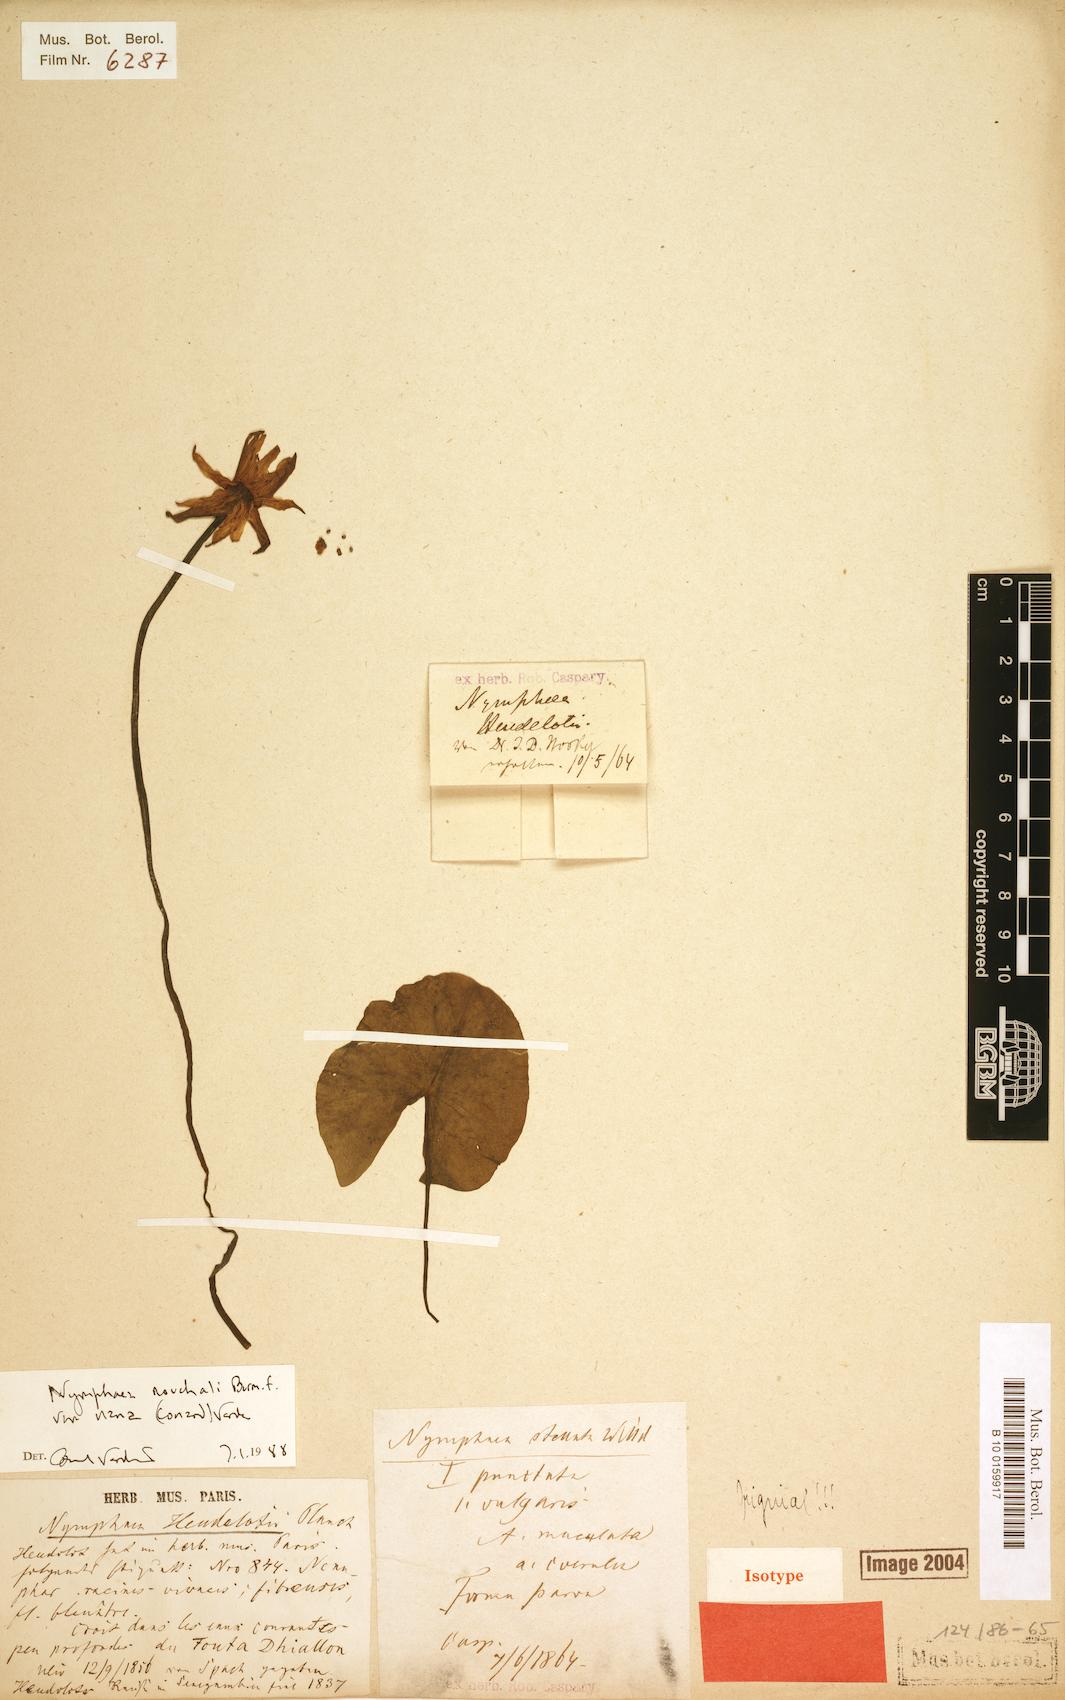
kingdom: Plantae
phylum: Tracheophyta
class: Magnoliopsida
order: Nymphaeales
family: Nymphaeaceae
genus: Nymphaea
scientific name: Nymphaea nouchali
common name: Blue lotus
